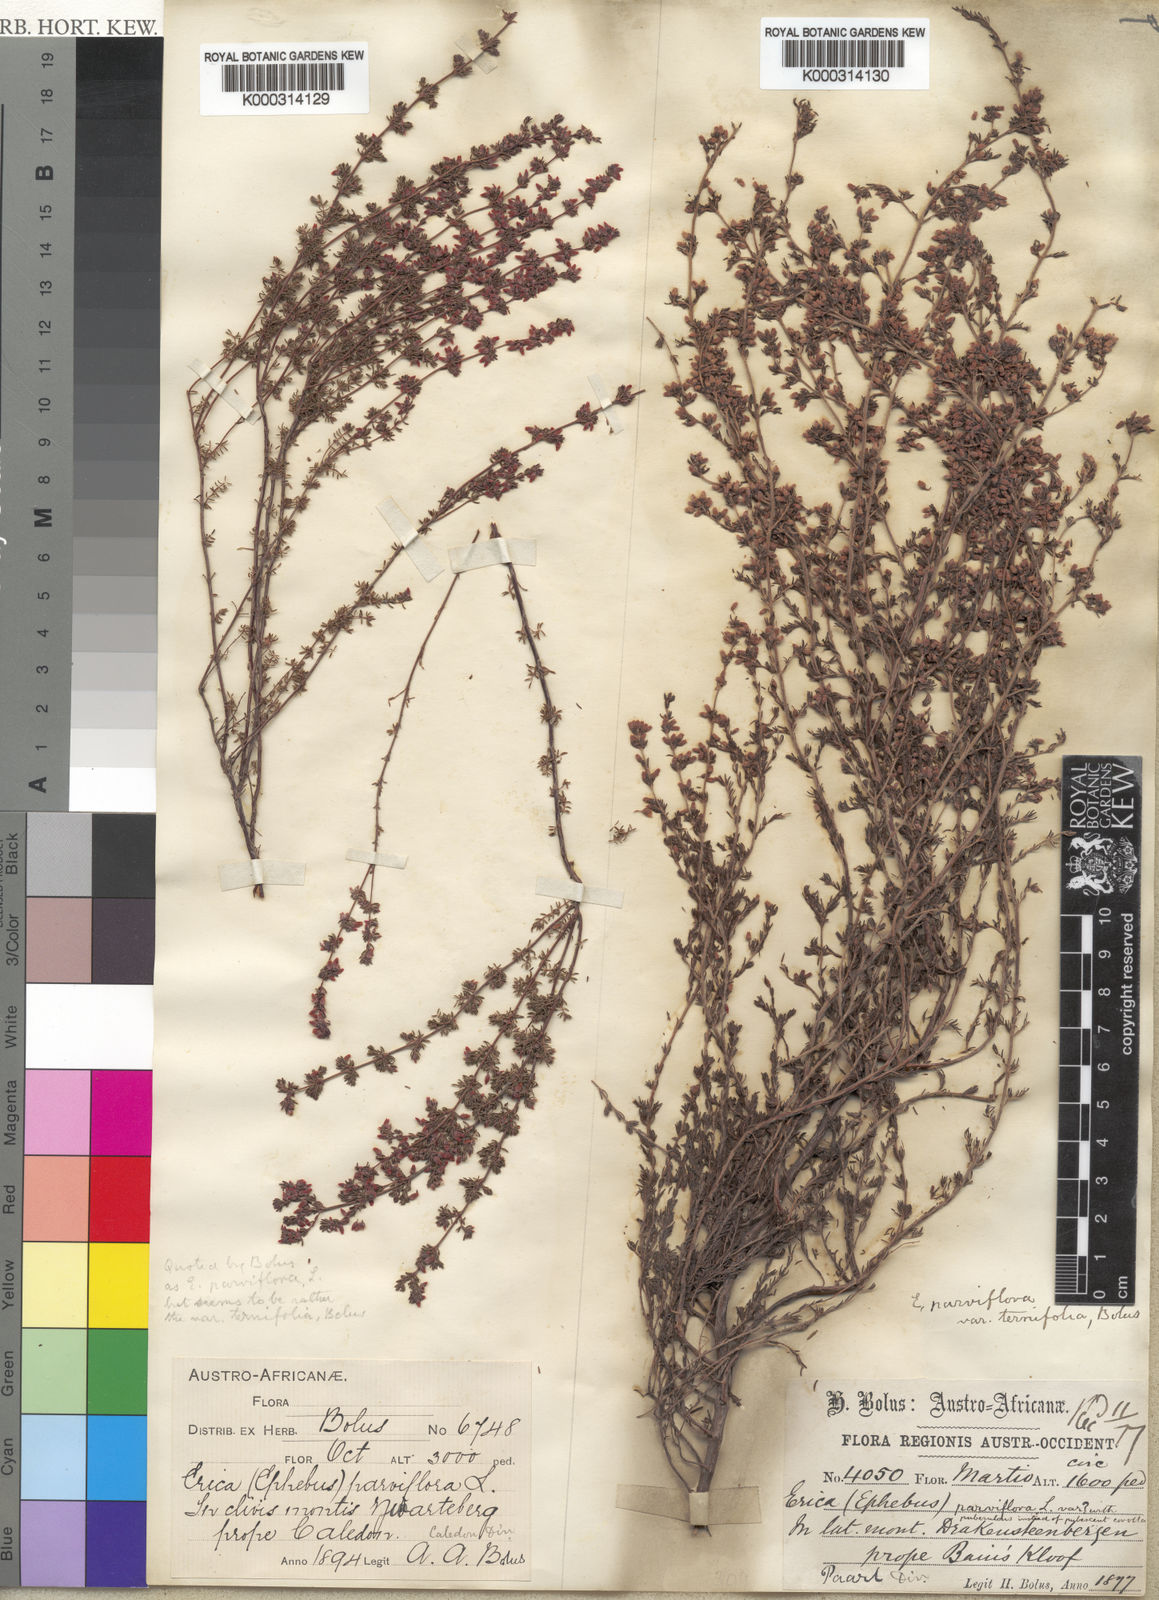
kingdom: Plantae
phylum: Tracheophyta
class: Magnoliopsida
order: Ericales
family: Ericaceae
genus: Erica
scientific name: Erica parviflora
